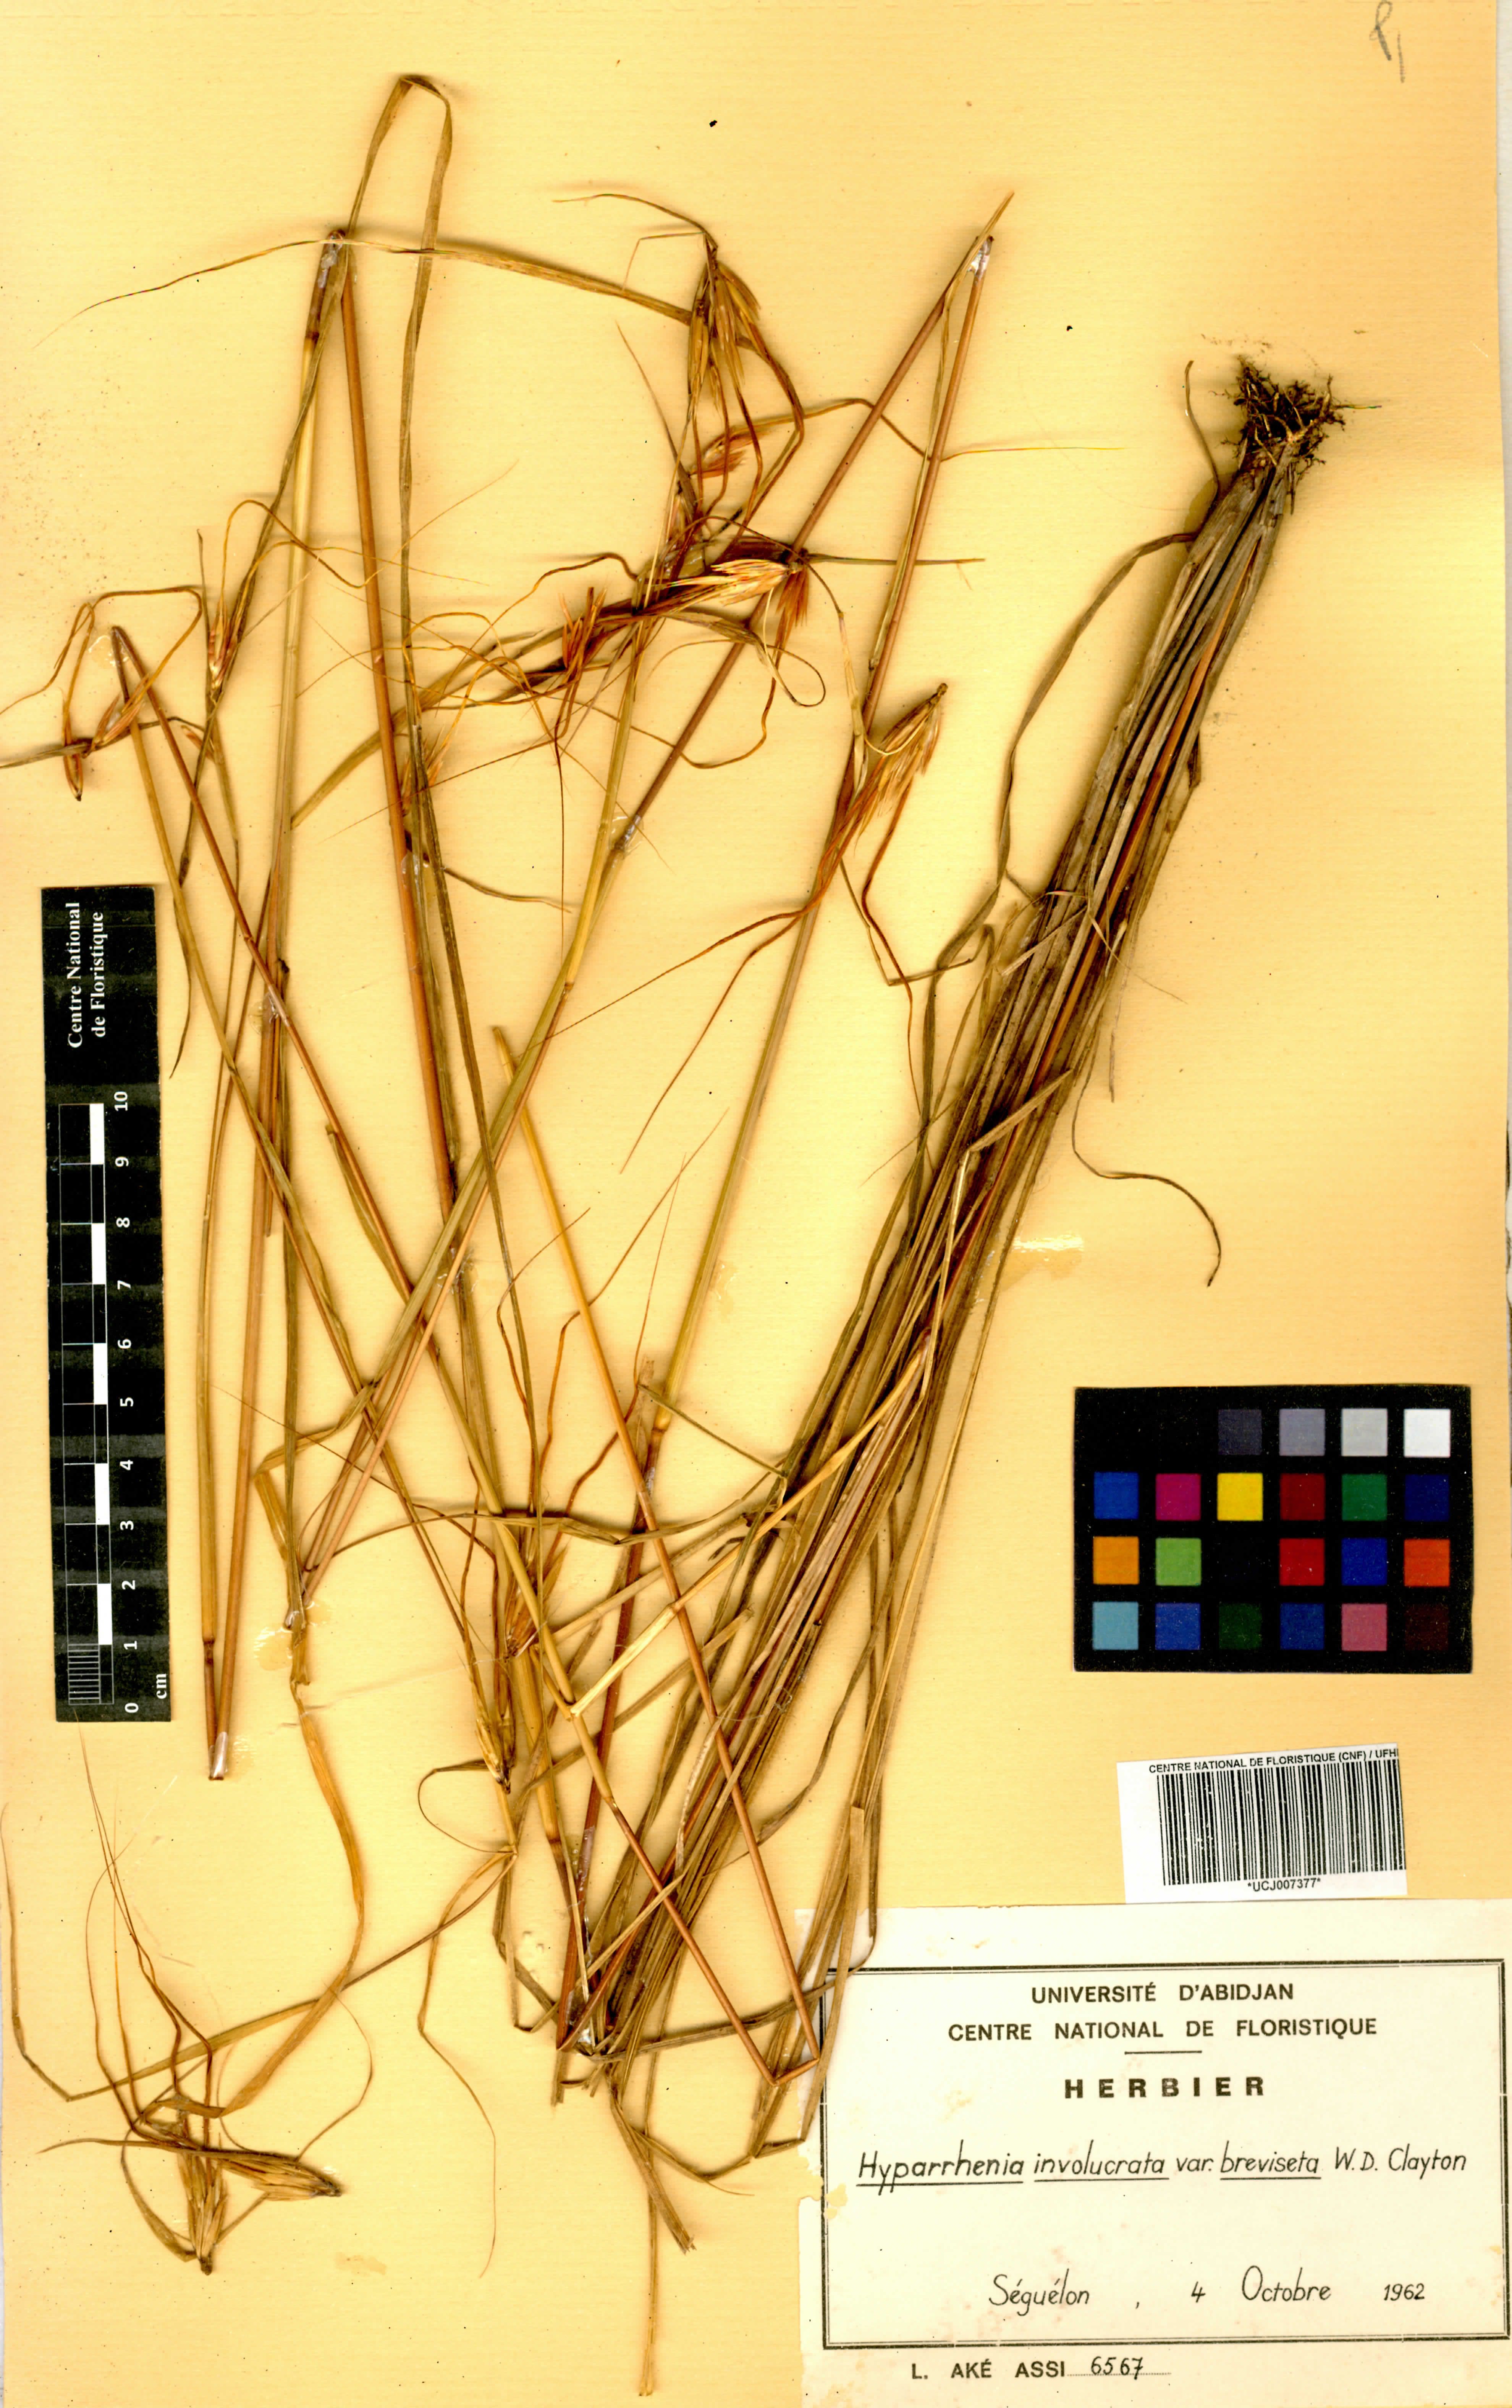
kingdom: Plantae
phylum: Tracheophyta
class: Liliopsida
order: Poales
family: Poaceae
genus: Hyparrhenia
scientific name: Hyparrhenia involucrata
